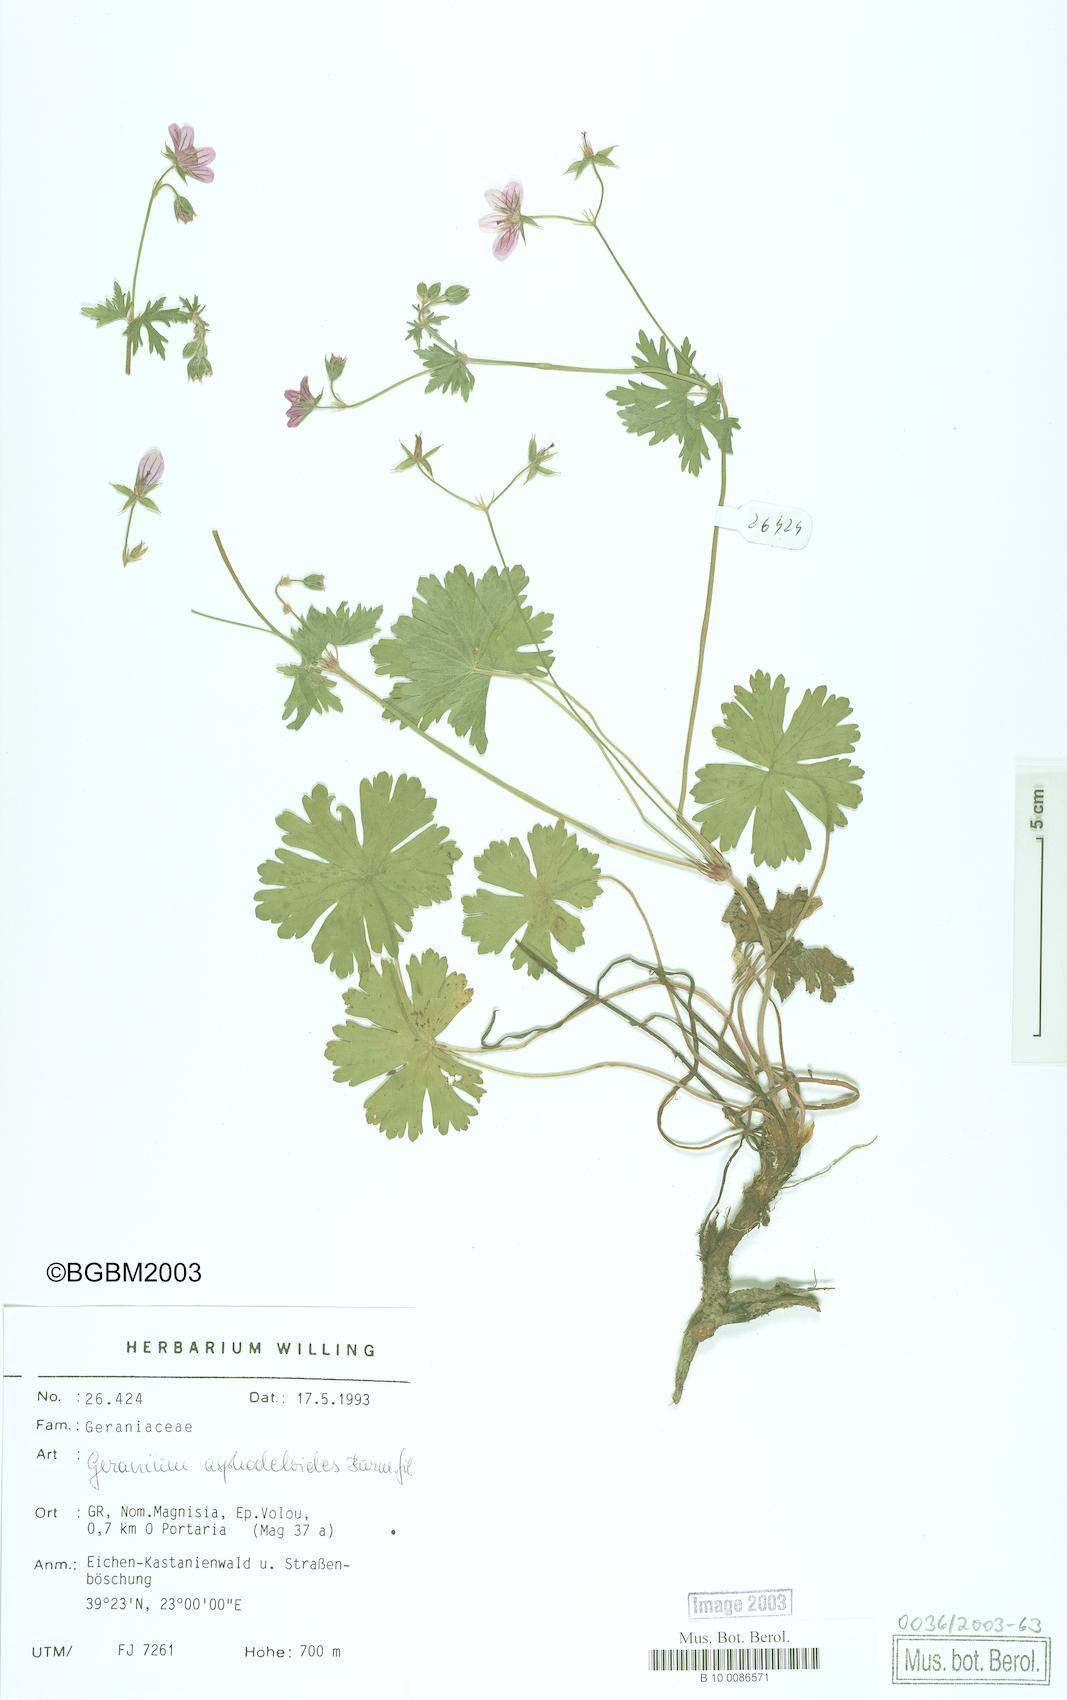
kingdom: Plantae
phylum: Tracheophyta
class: Magnoliopsida
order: Geraniales
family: Geraniaceae
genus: Geranium
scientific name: Geranium asphodeloides
